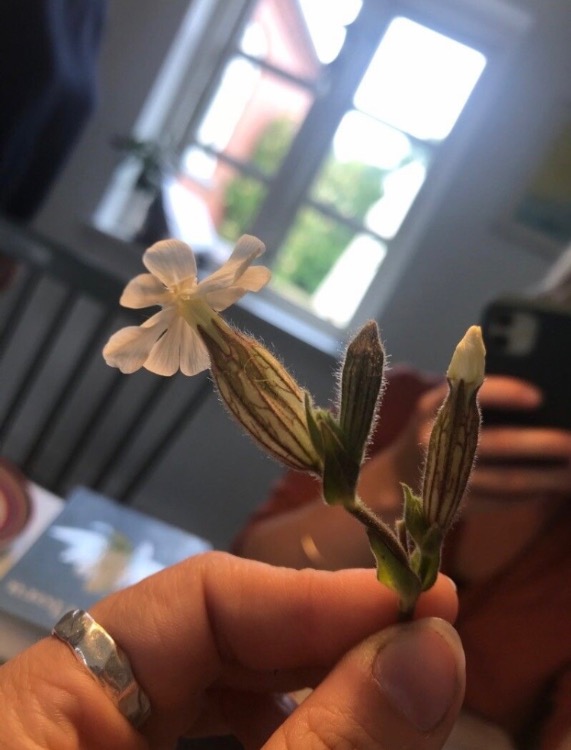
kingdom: Plantae
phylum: Tracheophyta
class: Magnoliopsida
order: Caryophyllales
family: Caryophyllaceae
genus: Silene
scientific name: Silene latifolia
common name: Aftenpragtstjerne
